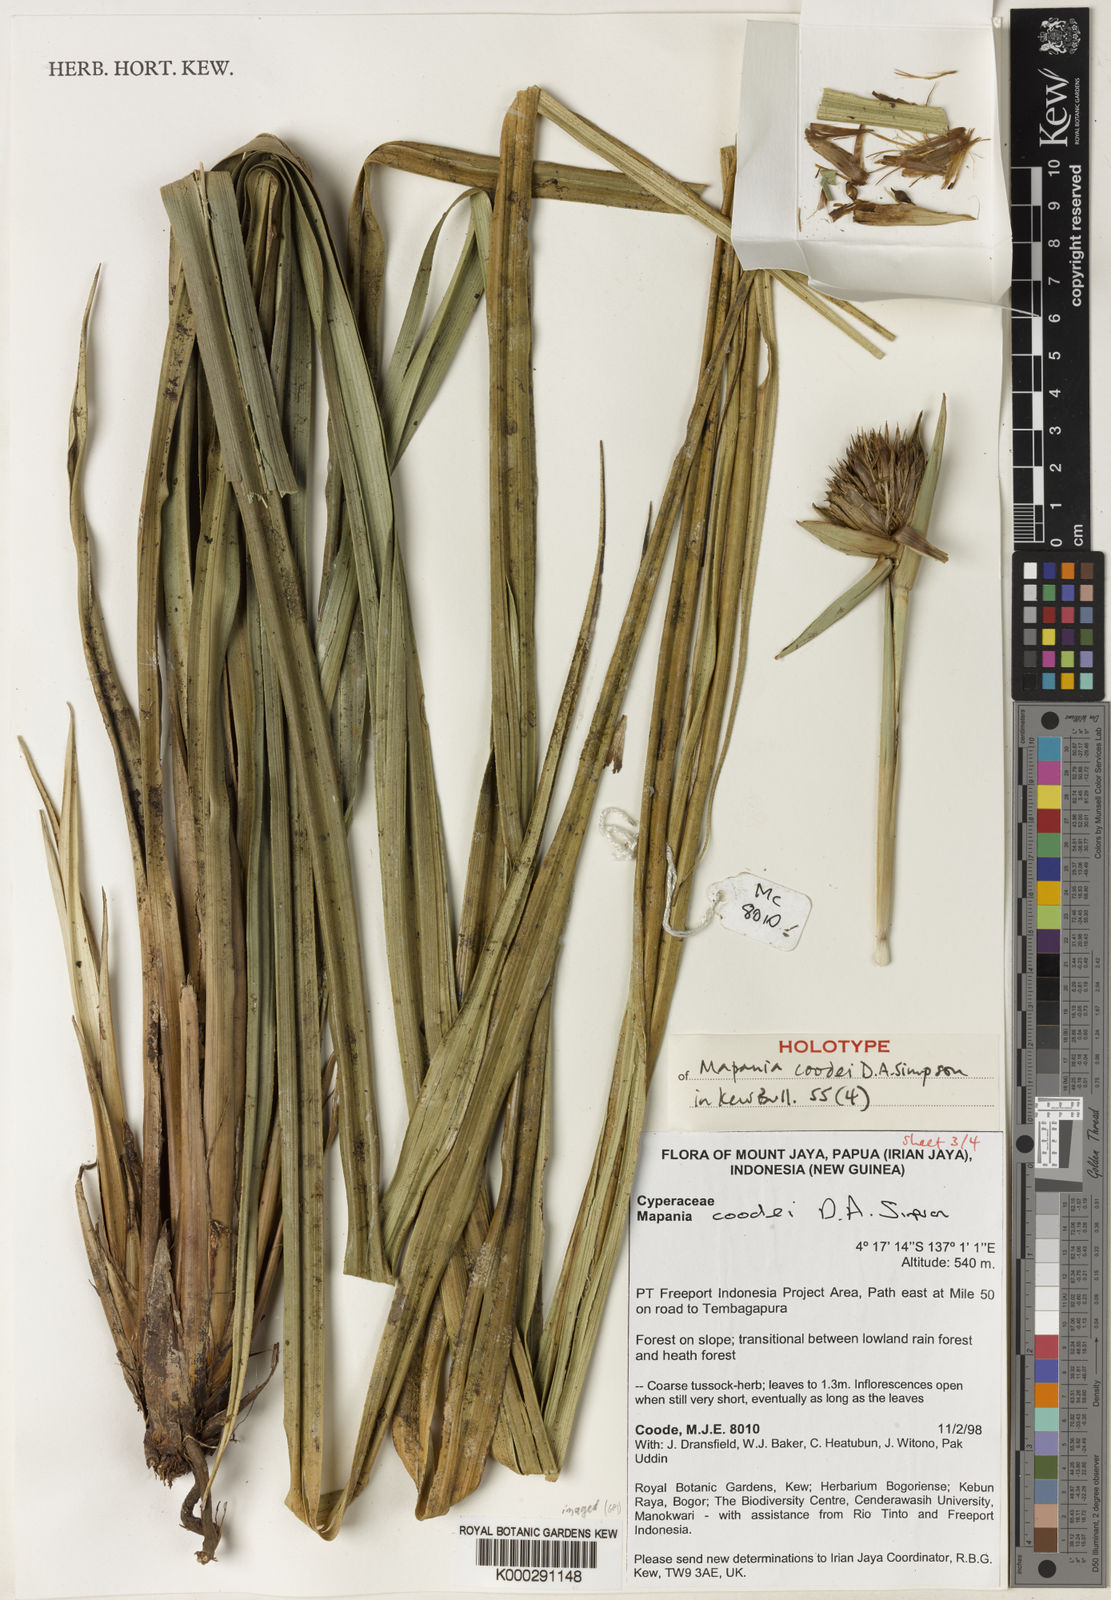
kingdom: Plantae
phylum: Tracheophyta
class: Liliopsida
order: Poales
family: Cyperaceae
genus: Mapania
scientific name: Mapania coodei
